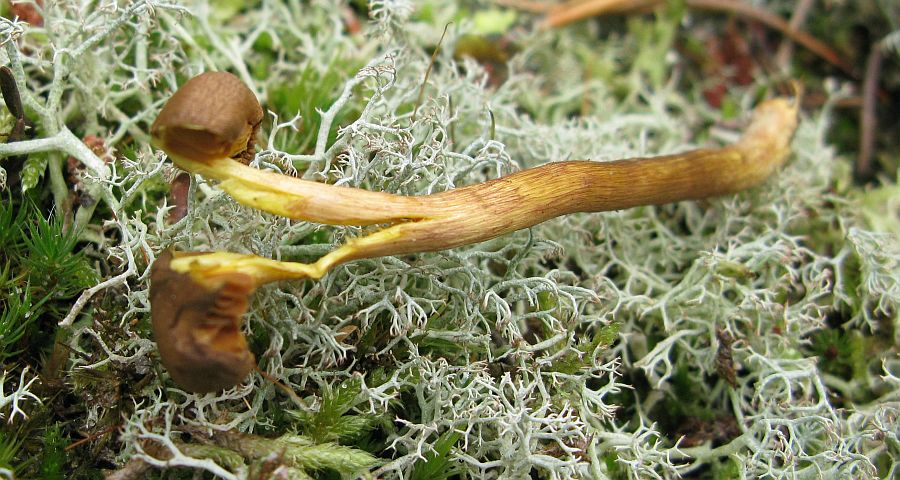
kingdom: Fungi
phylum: Basidiomycota
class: Agaricomycetes
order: Agaricales
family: Cortinariaceae
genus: Cortinarius
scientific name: Cortinarius
